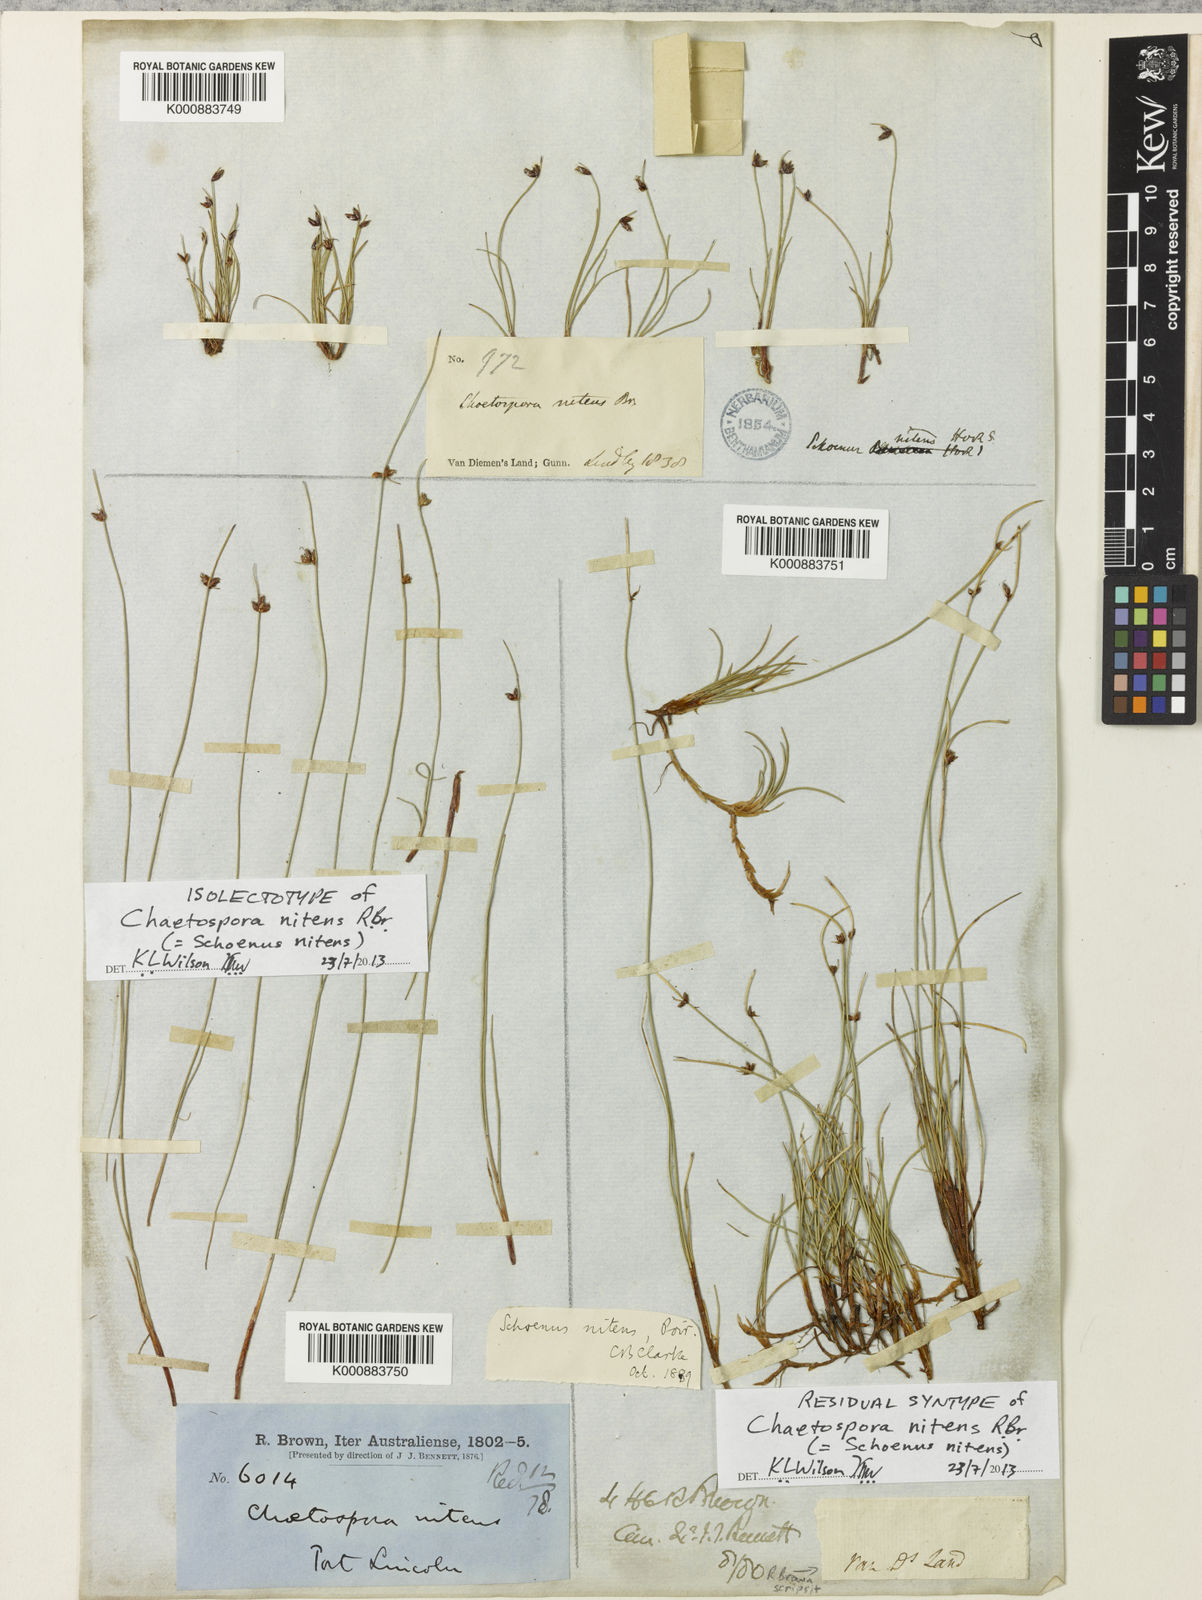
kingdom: Plantae
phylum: Tracheophyta
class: Liliopsida
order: Poales
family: Cyperaceae
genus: Schoenus
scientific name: Schoenus
